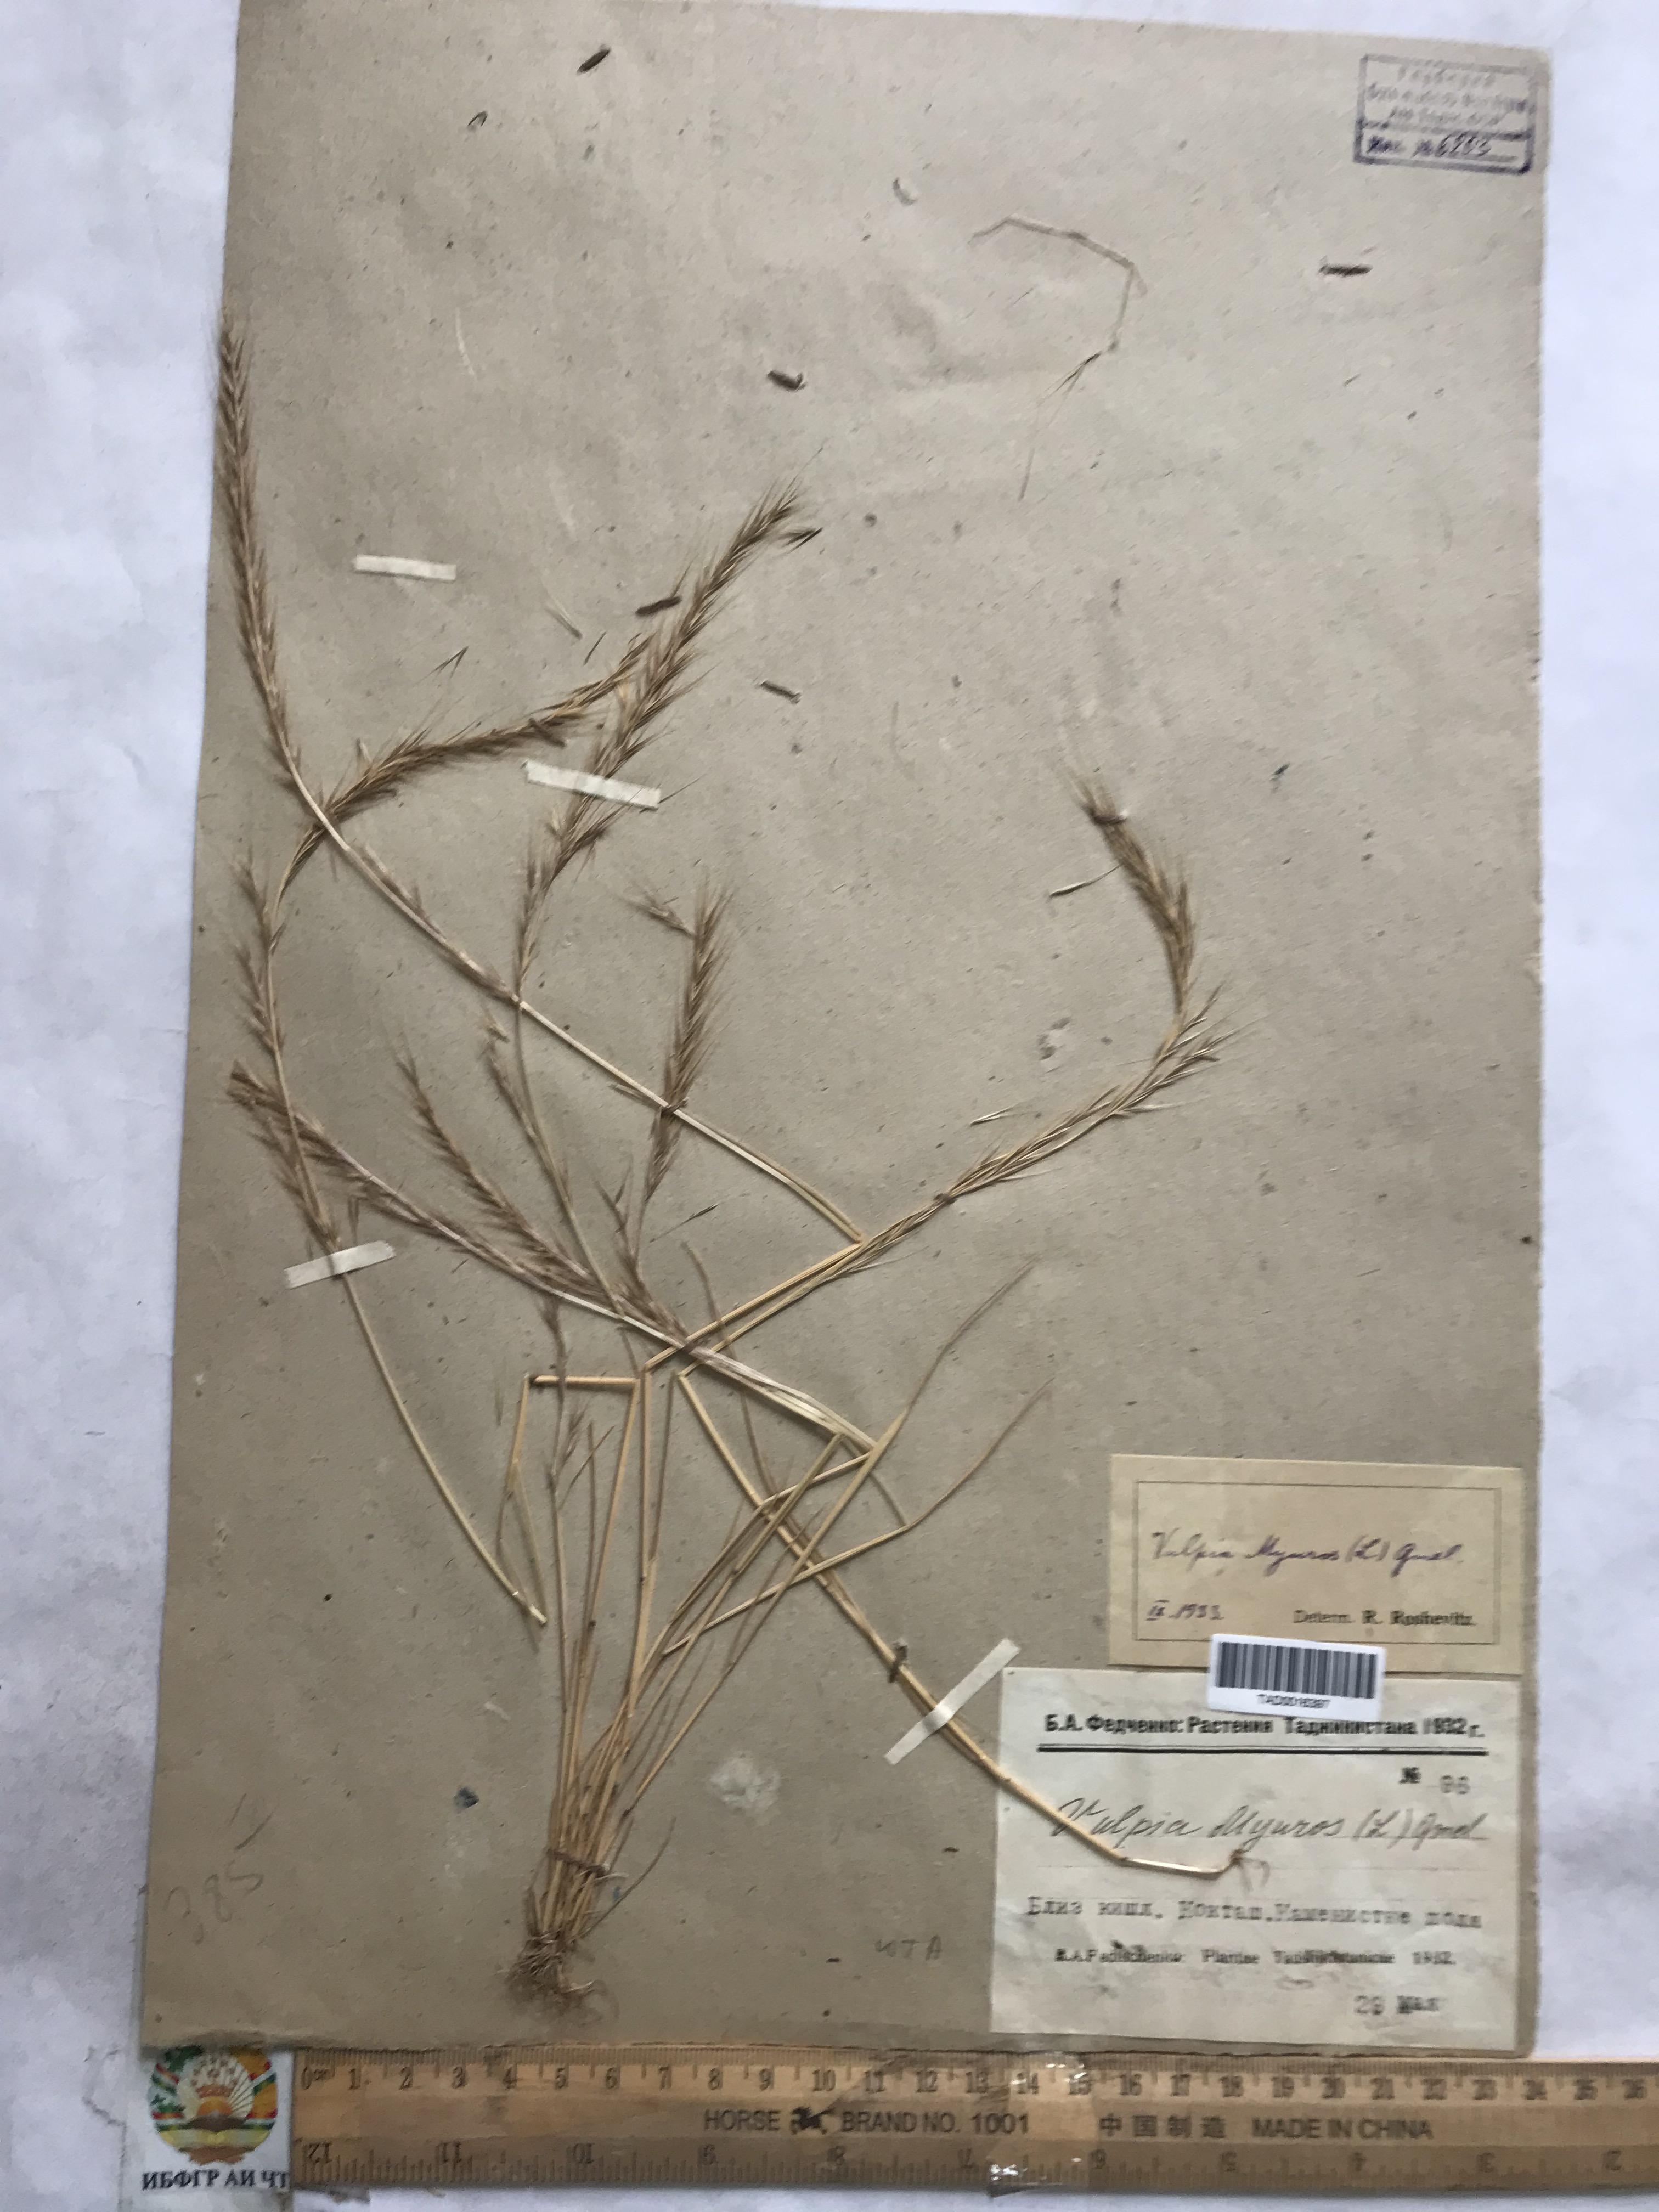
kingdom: Plantae
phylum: Tracheophyta
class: Liliopsida
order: Poales
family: Poaceae
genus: Festuca
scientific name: Festuca myuros
